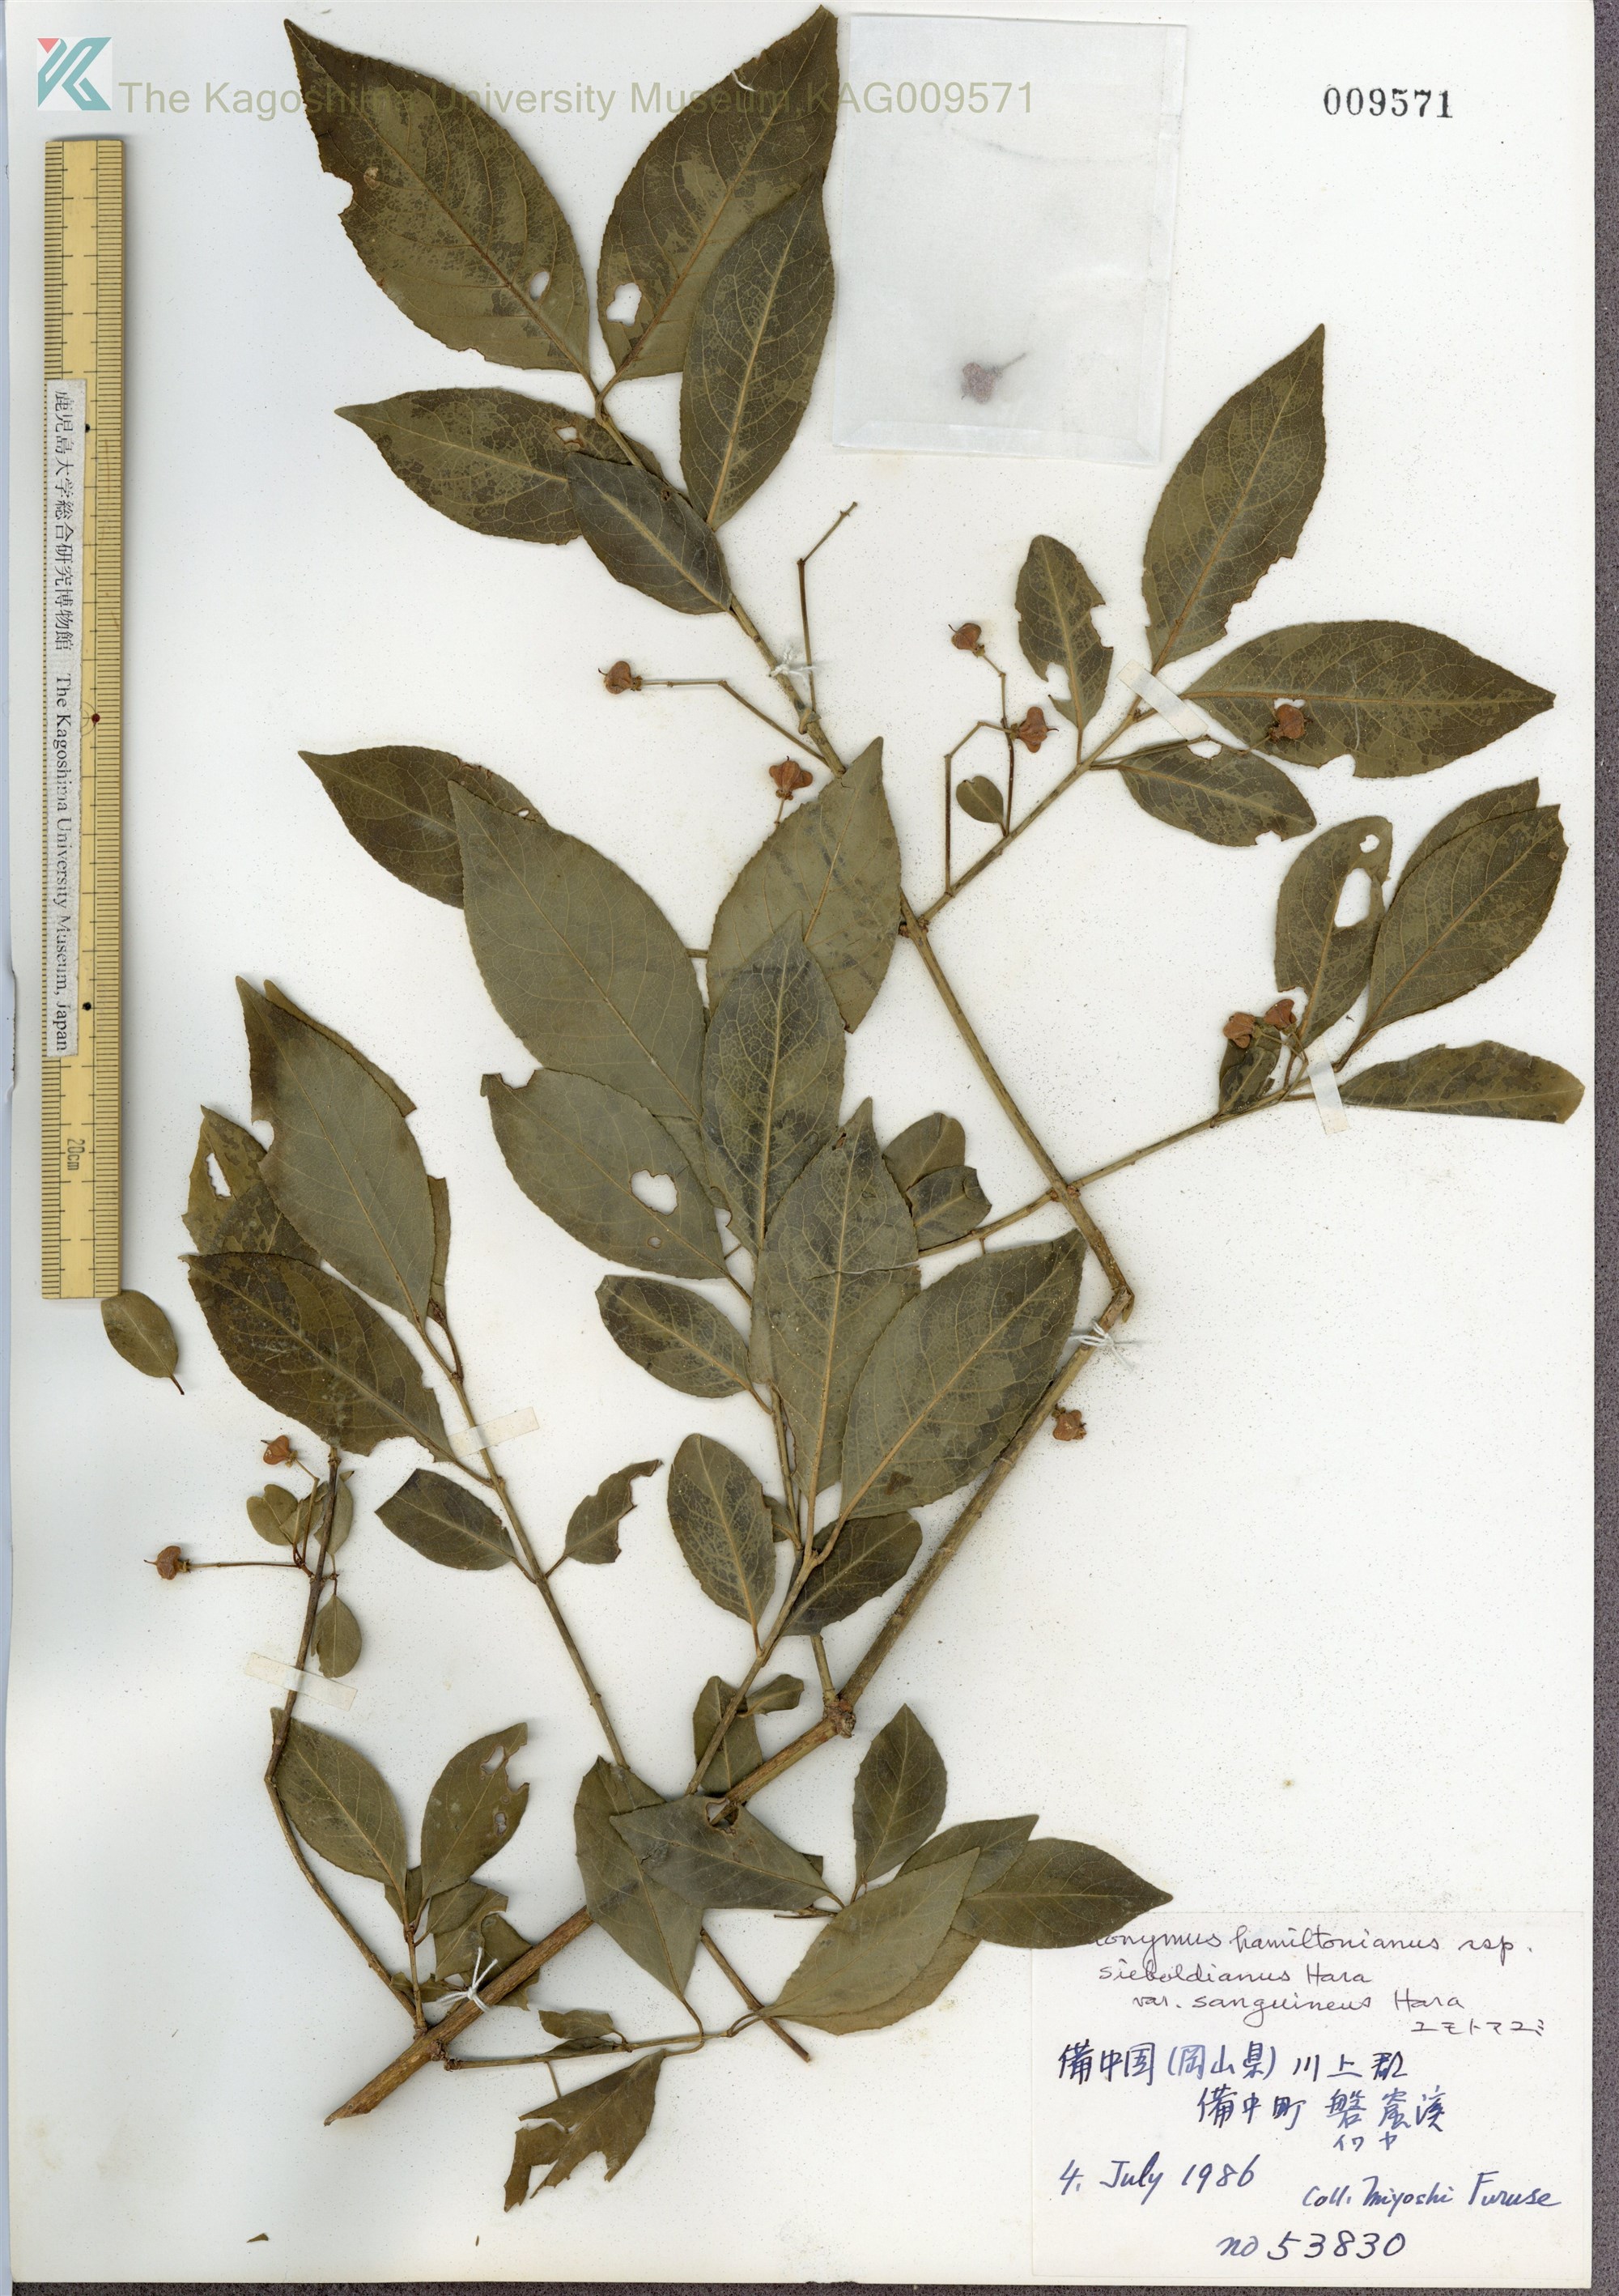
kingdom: Plantae
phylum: Tracheophyta
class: Magnoliopsida
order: Celastrales
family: Celastraceae
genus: Euonymus
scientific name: Euonymus hamiltonianus
